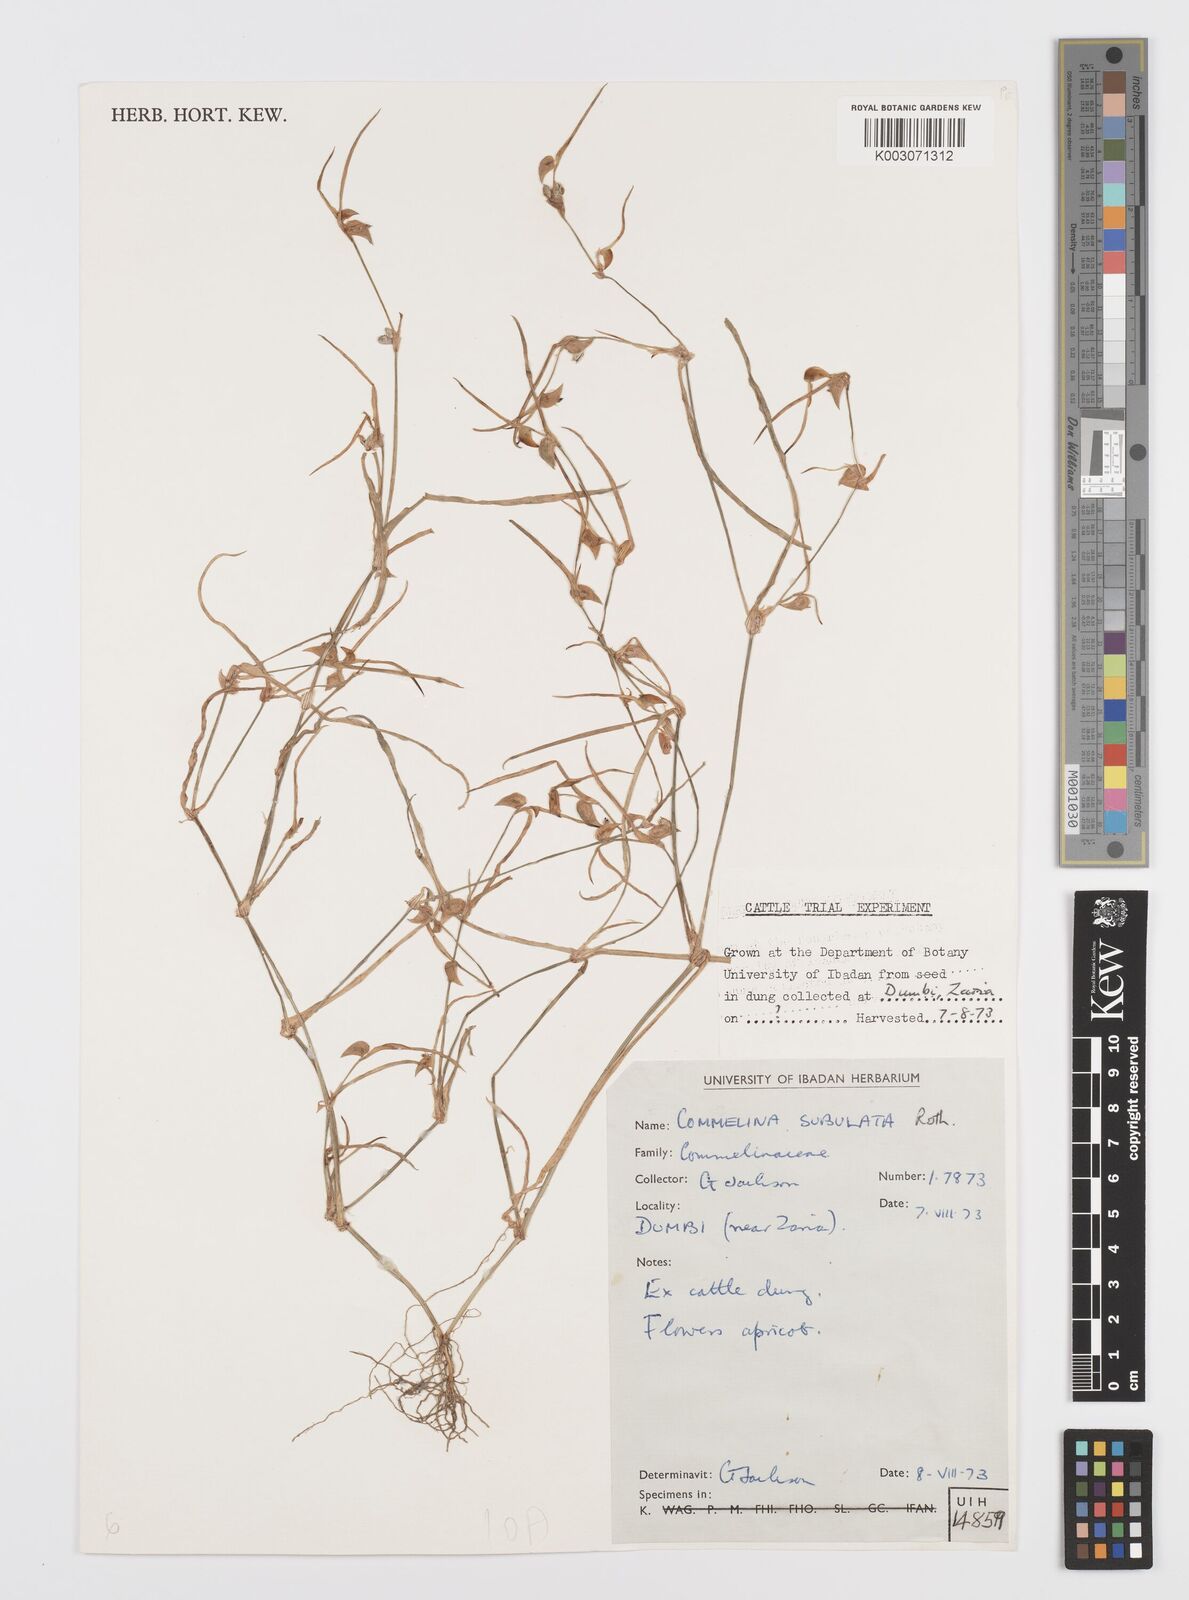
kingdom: Plantae
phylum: Tracheophyta
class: Liliopsida
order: Commelinales
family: Commelinaceae
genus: Commelina
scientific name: Commelina subulata
